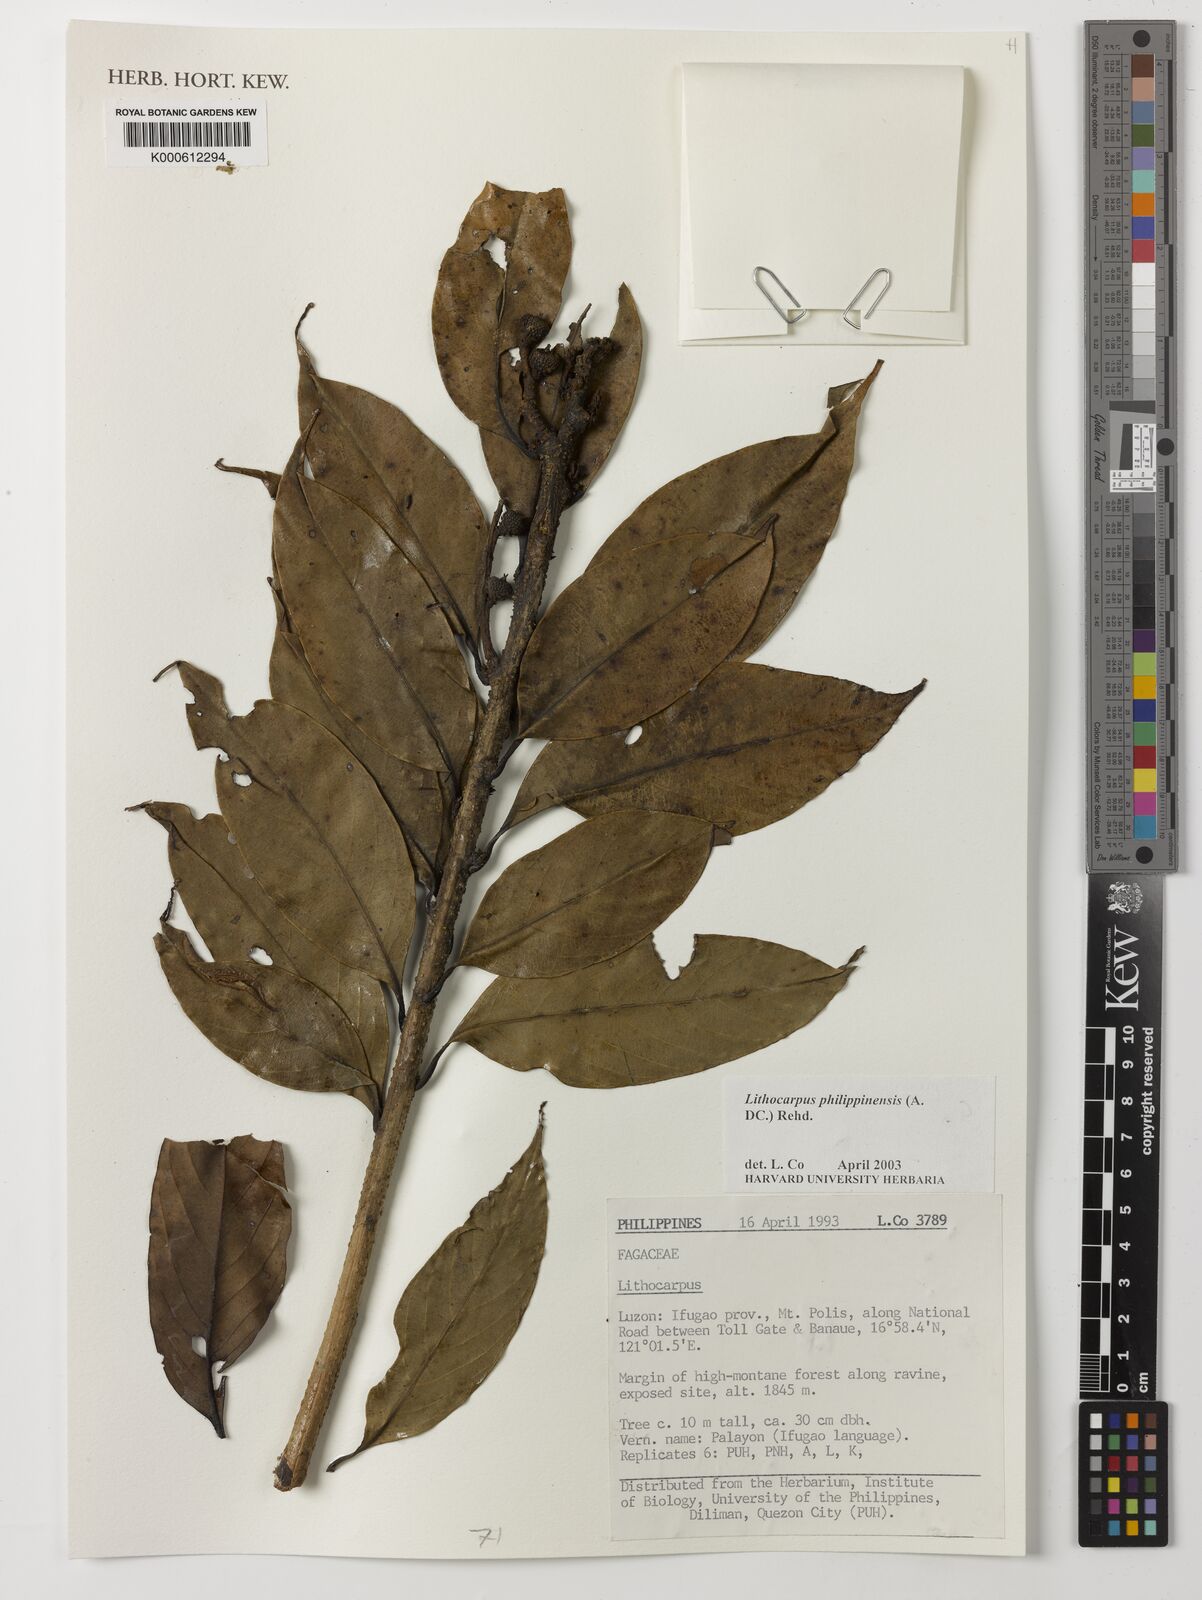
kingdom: Plantae
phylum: Tracheophyta
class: Magnoliopsida
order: Fagales
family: Fagaceae
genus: Lithocarpus
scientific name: Lithocarpus philippinensis
